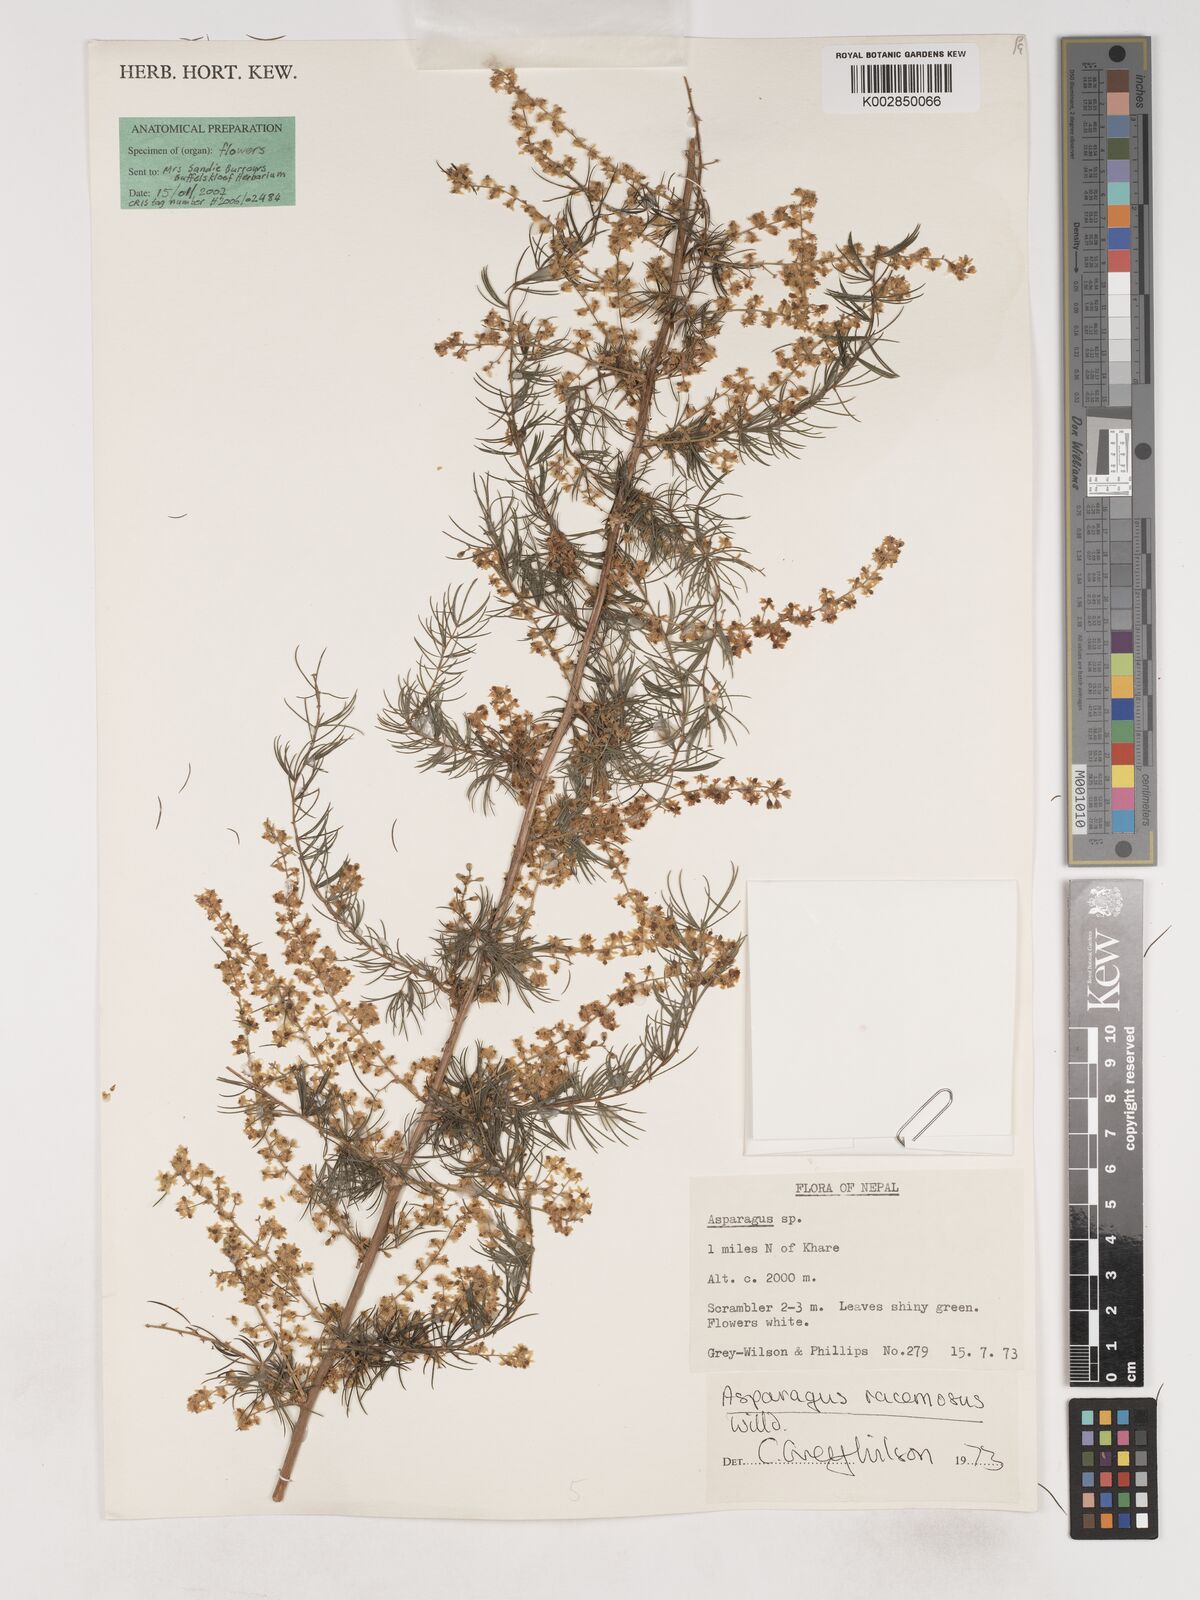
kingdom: Plantae
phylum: Tracheophyta
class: Liliopsida
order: Asparagales
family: Asparagaceae
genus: Asparagus
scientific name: Asparagus racemosus
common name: Asparagus-fern
